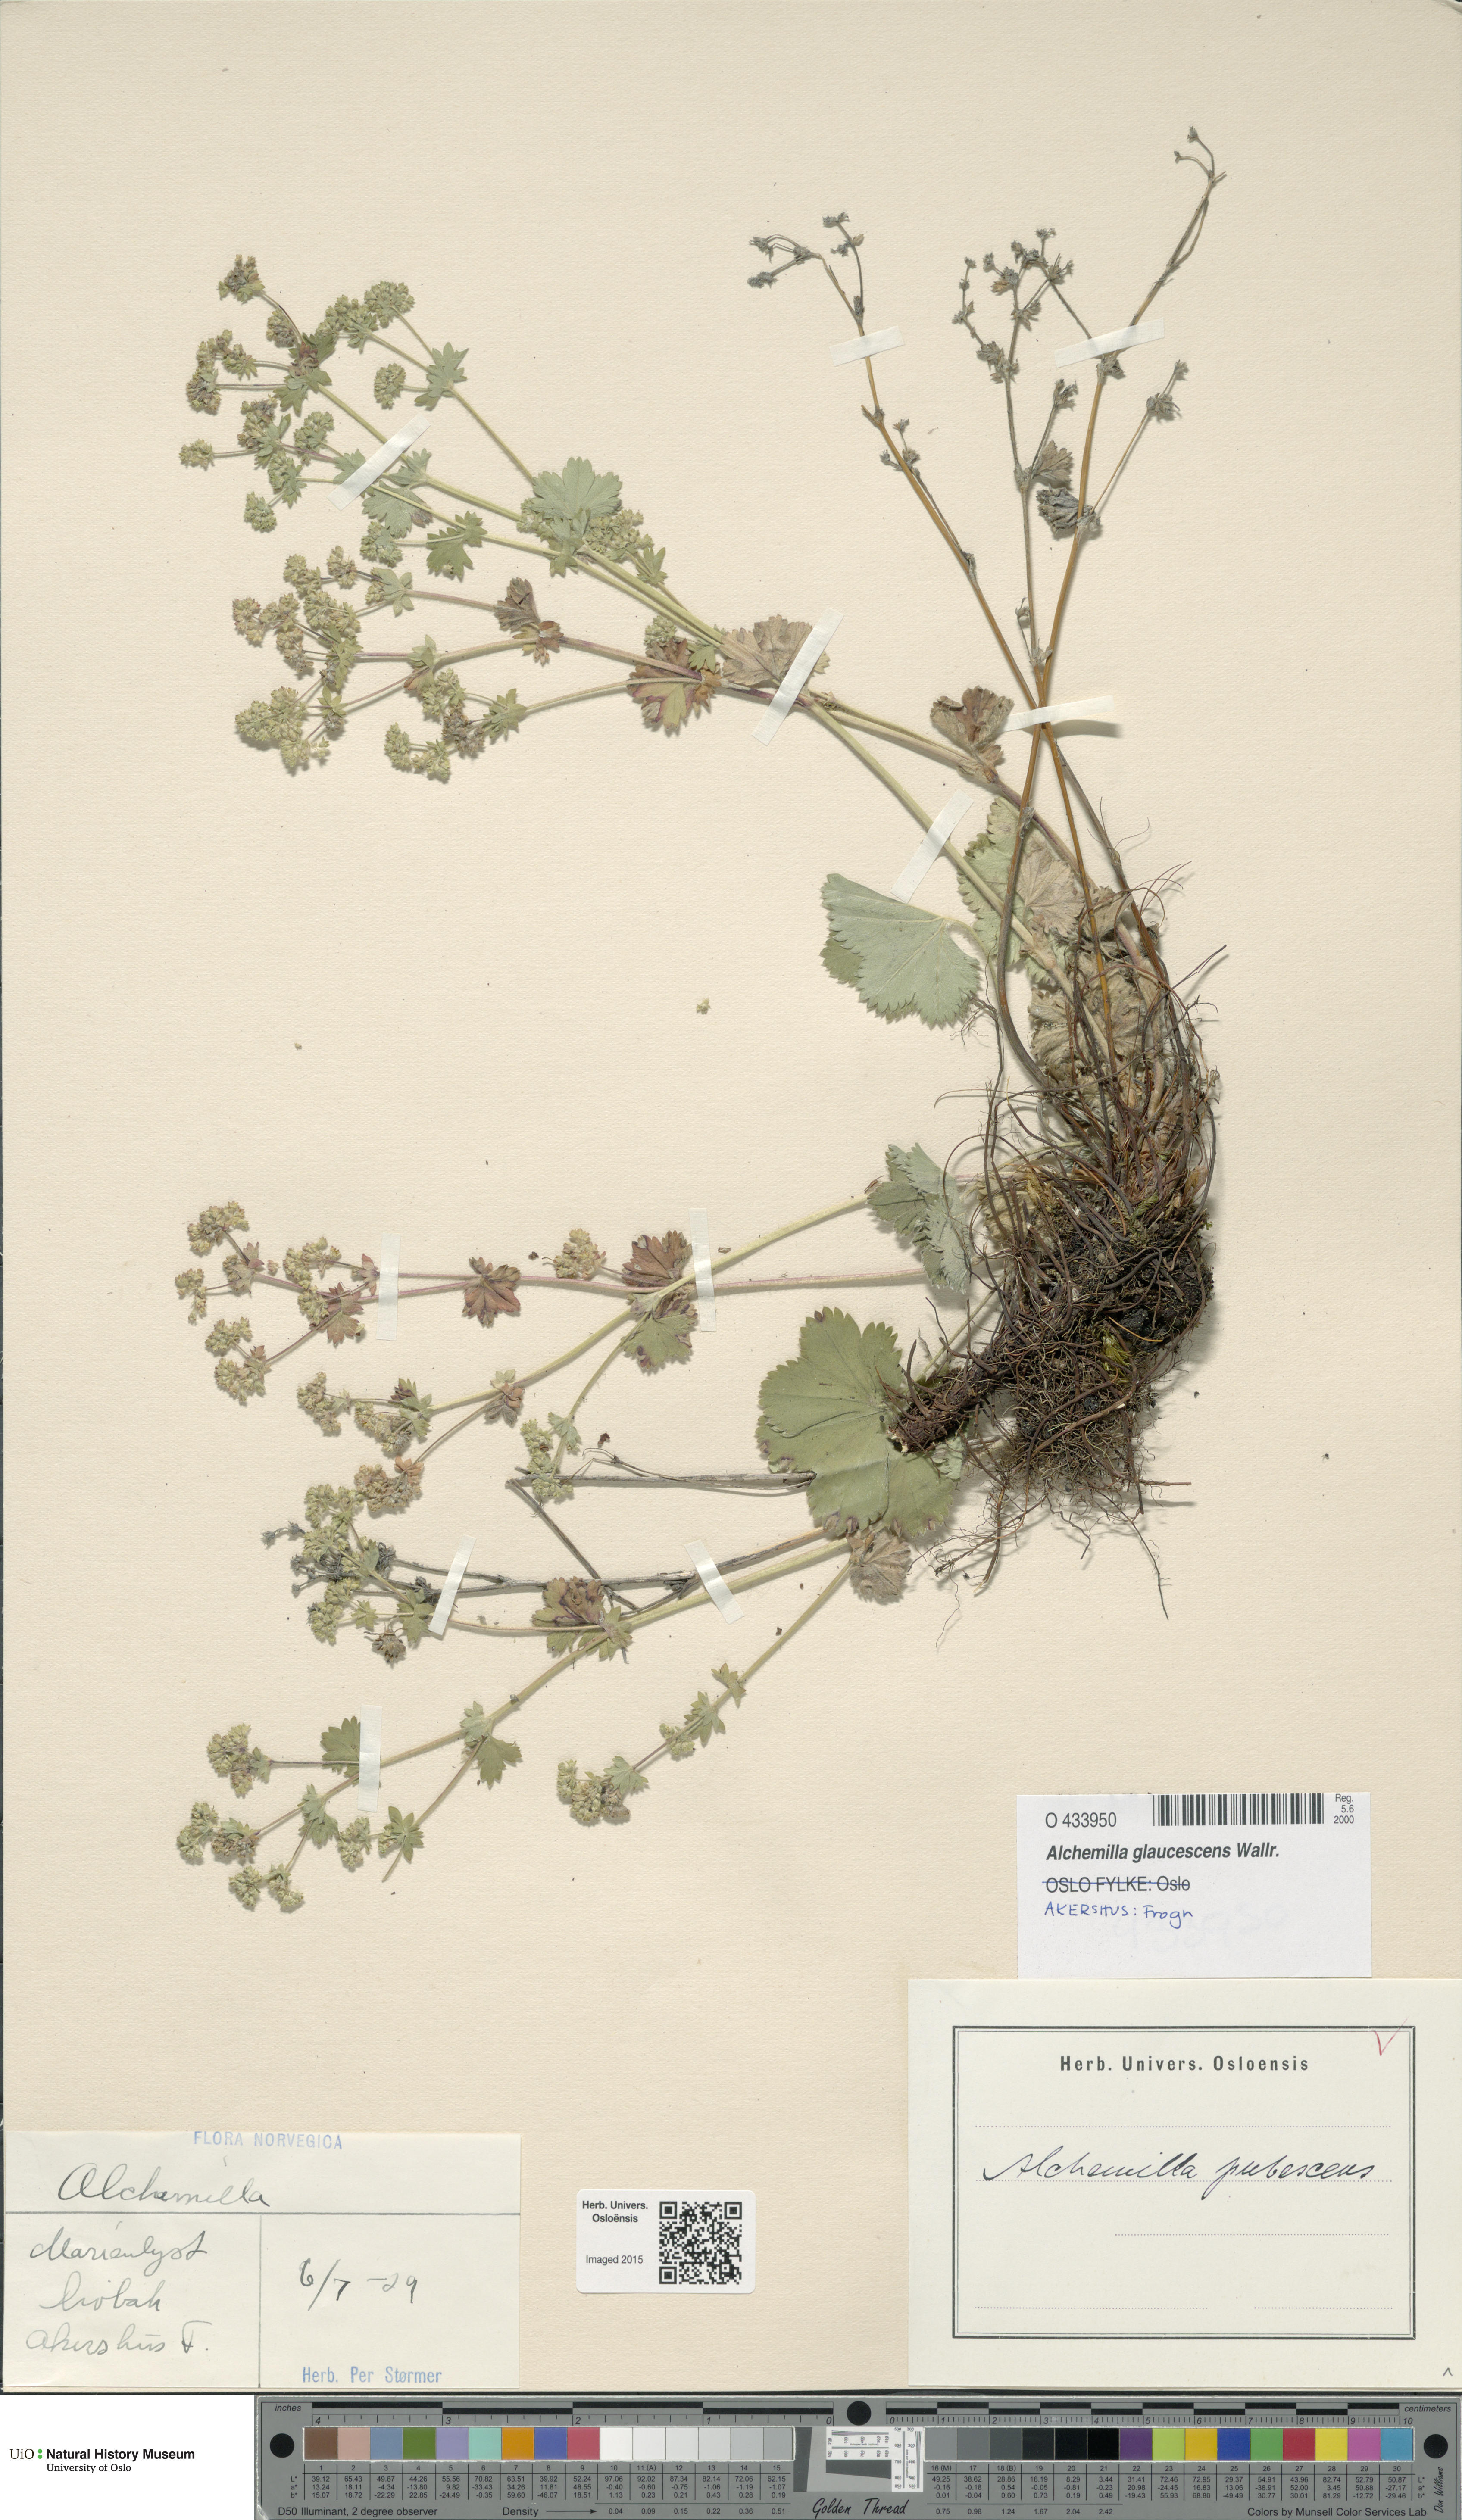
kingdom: Plantae
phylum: Tracheophyta
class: Magnoliopsida
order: Rosales
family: Rosaceae
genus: Alchemilla
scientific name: Alchemilla glaucescens
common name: Silky lady's mantle
